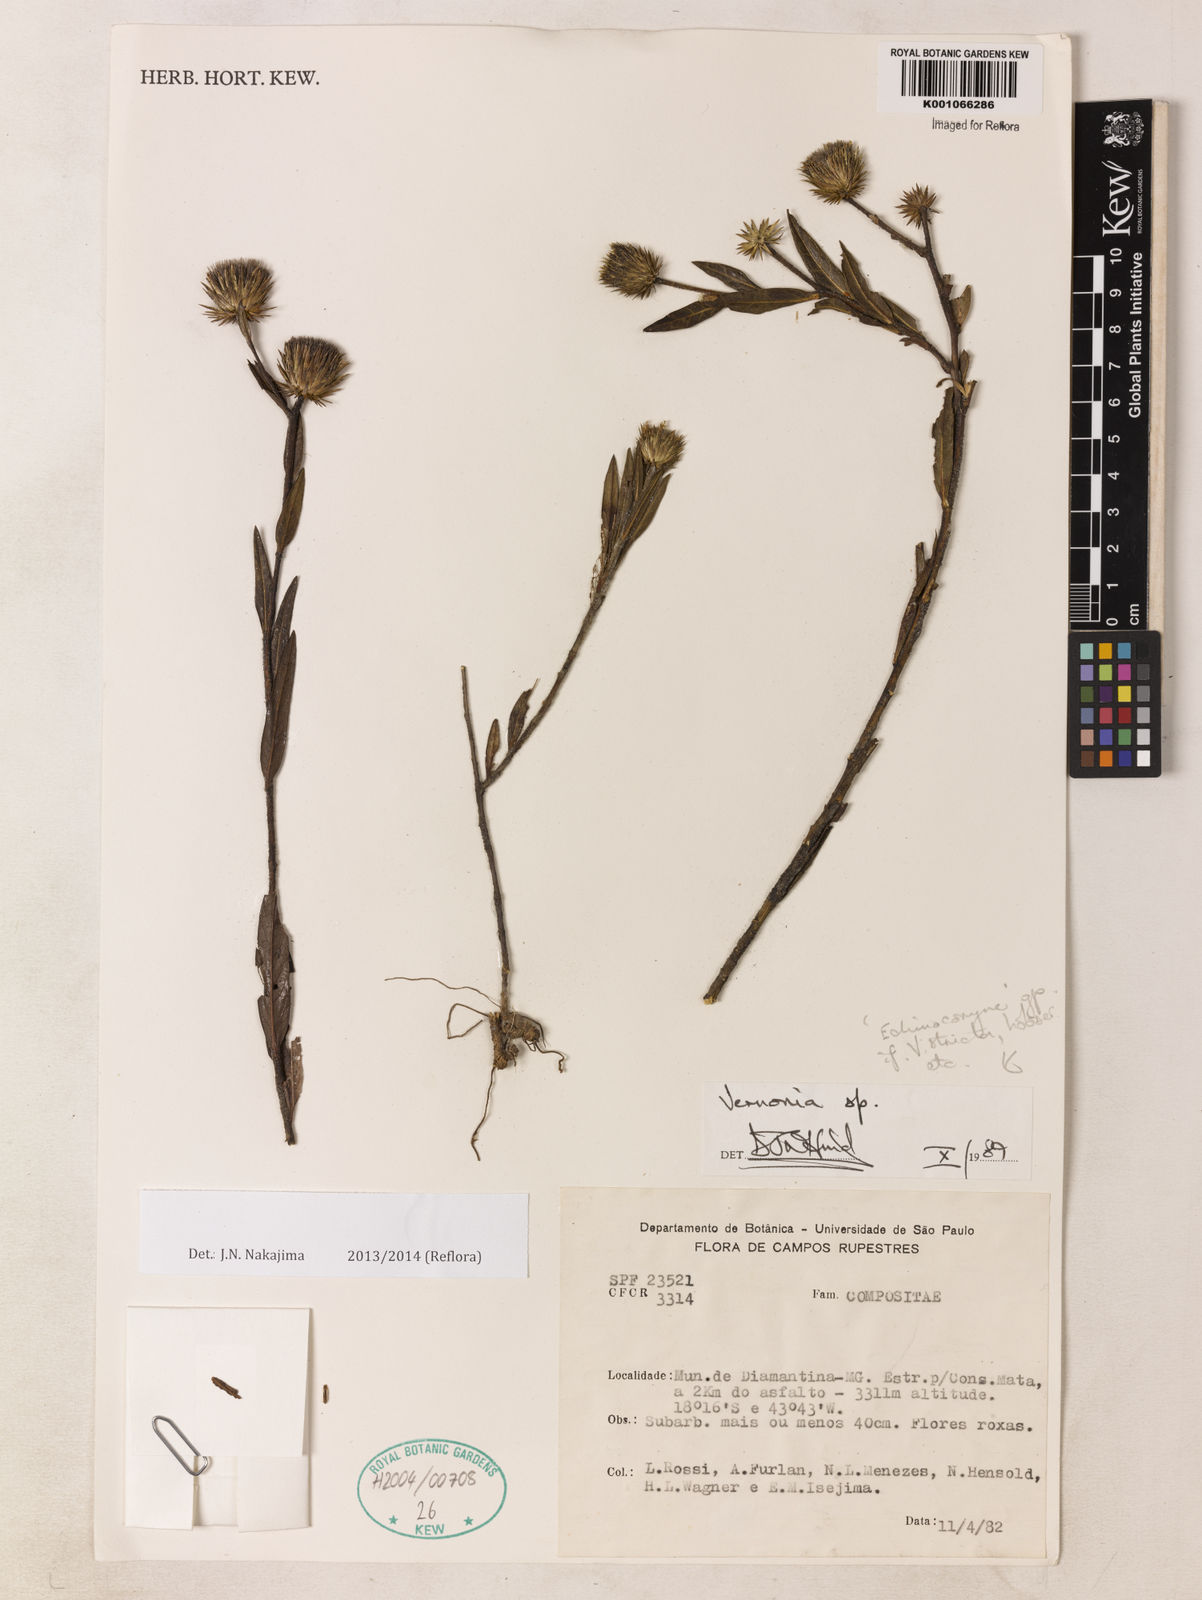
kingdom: Plantae
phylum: Tracheophyta
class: Magnoliopsida
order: Asterales
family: Asteraceae
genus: Lessingianthus
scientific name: Lessingianthus subcarduoides
